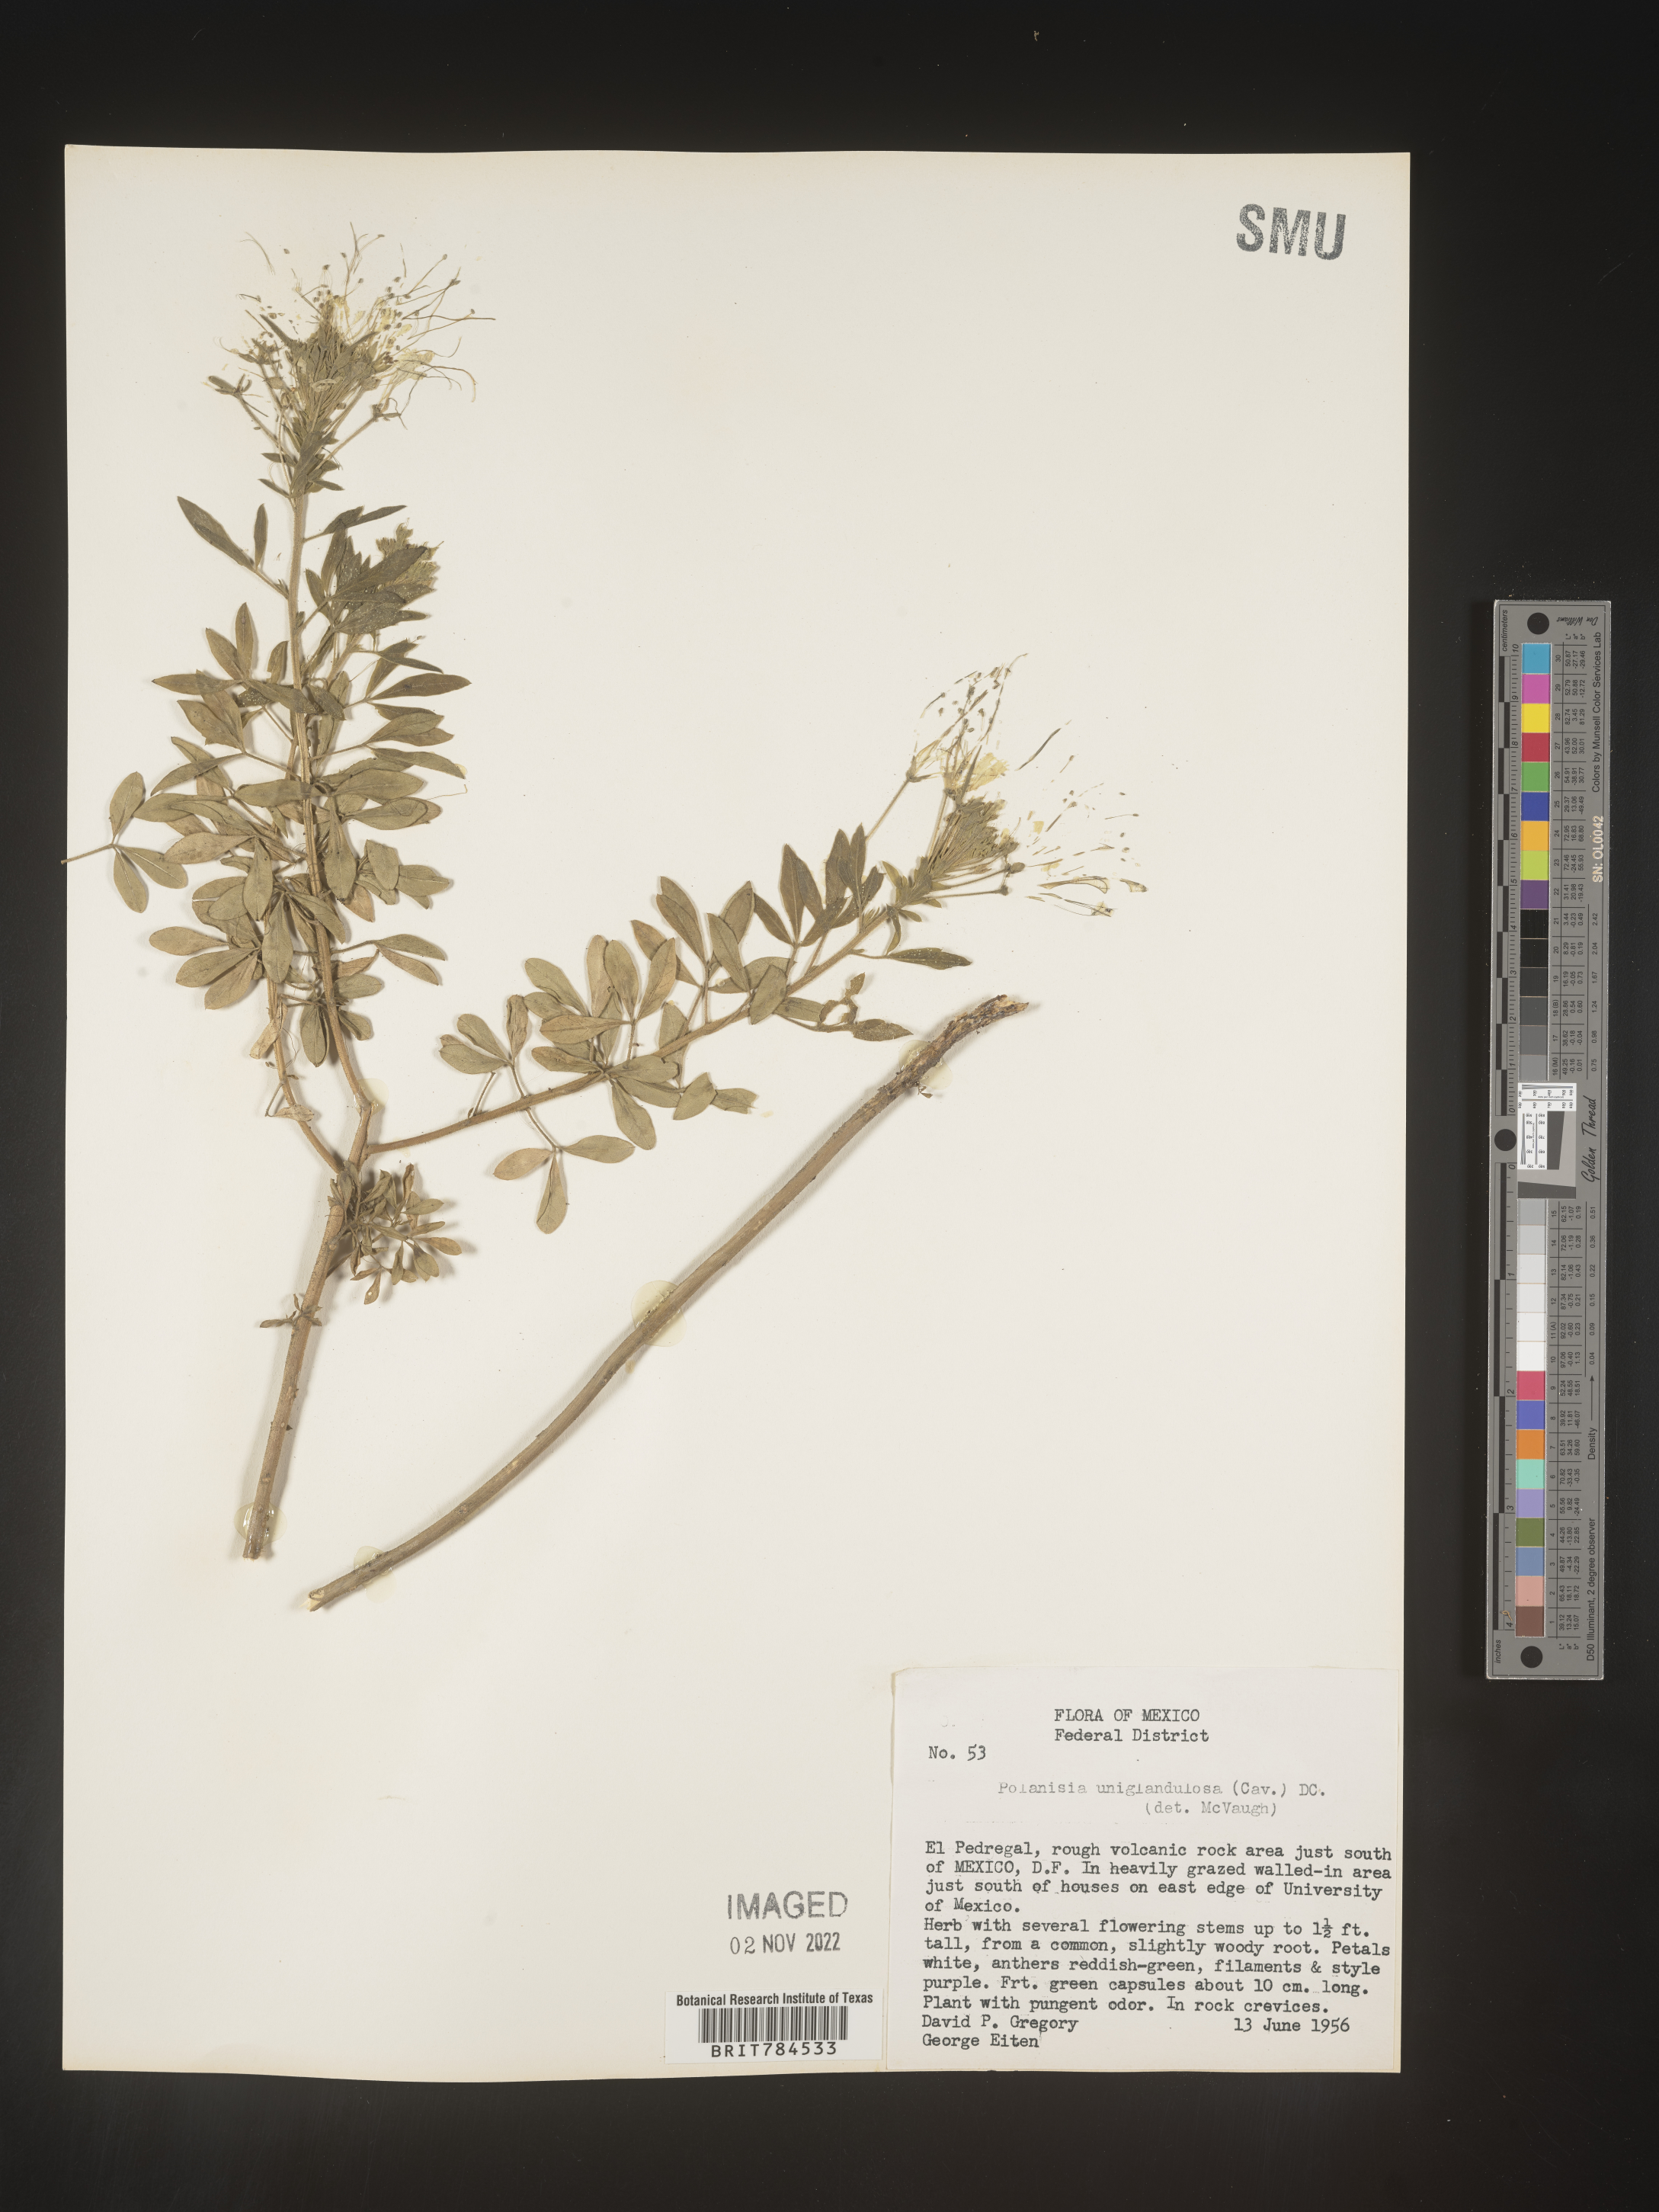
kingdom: Plantae
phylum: Tracheophyta
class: Magnoliopsida
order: Brassicales
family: Cleomaceae
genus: Polanisia
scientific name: Polanisia
